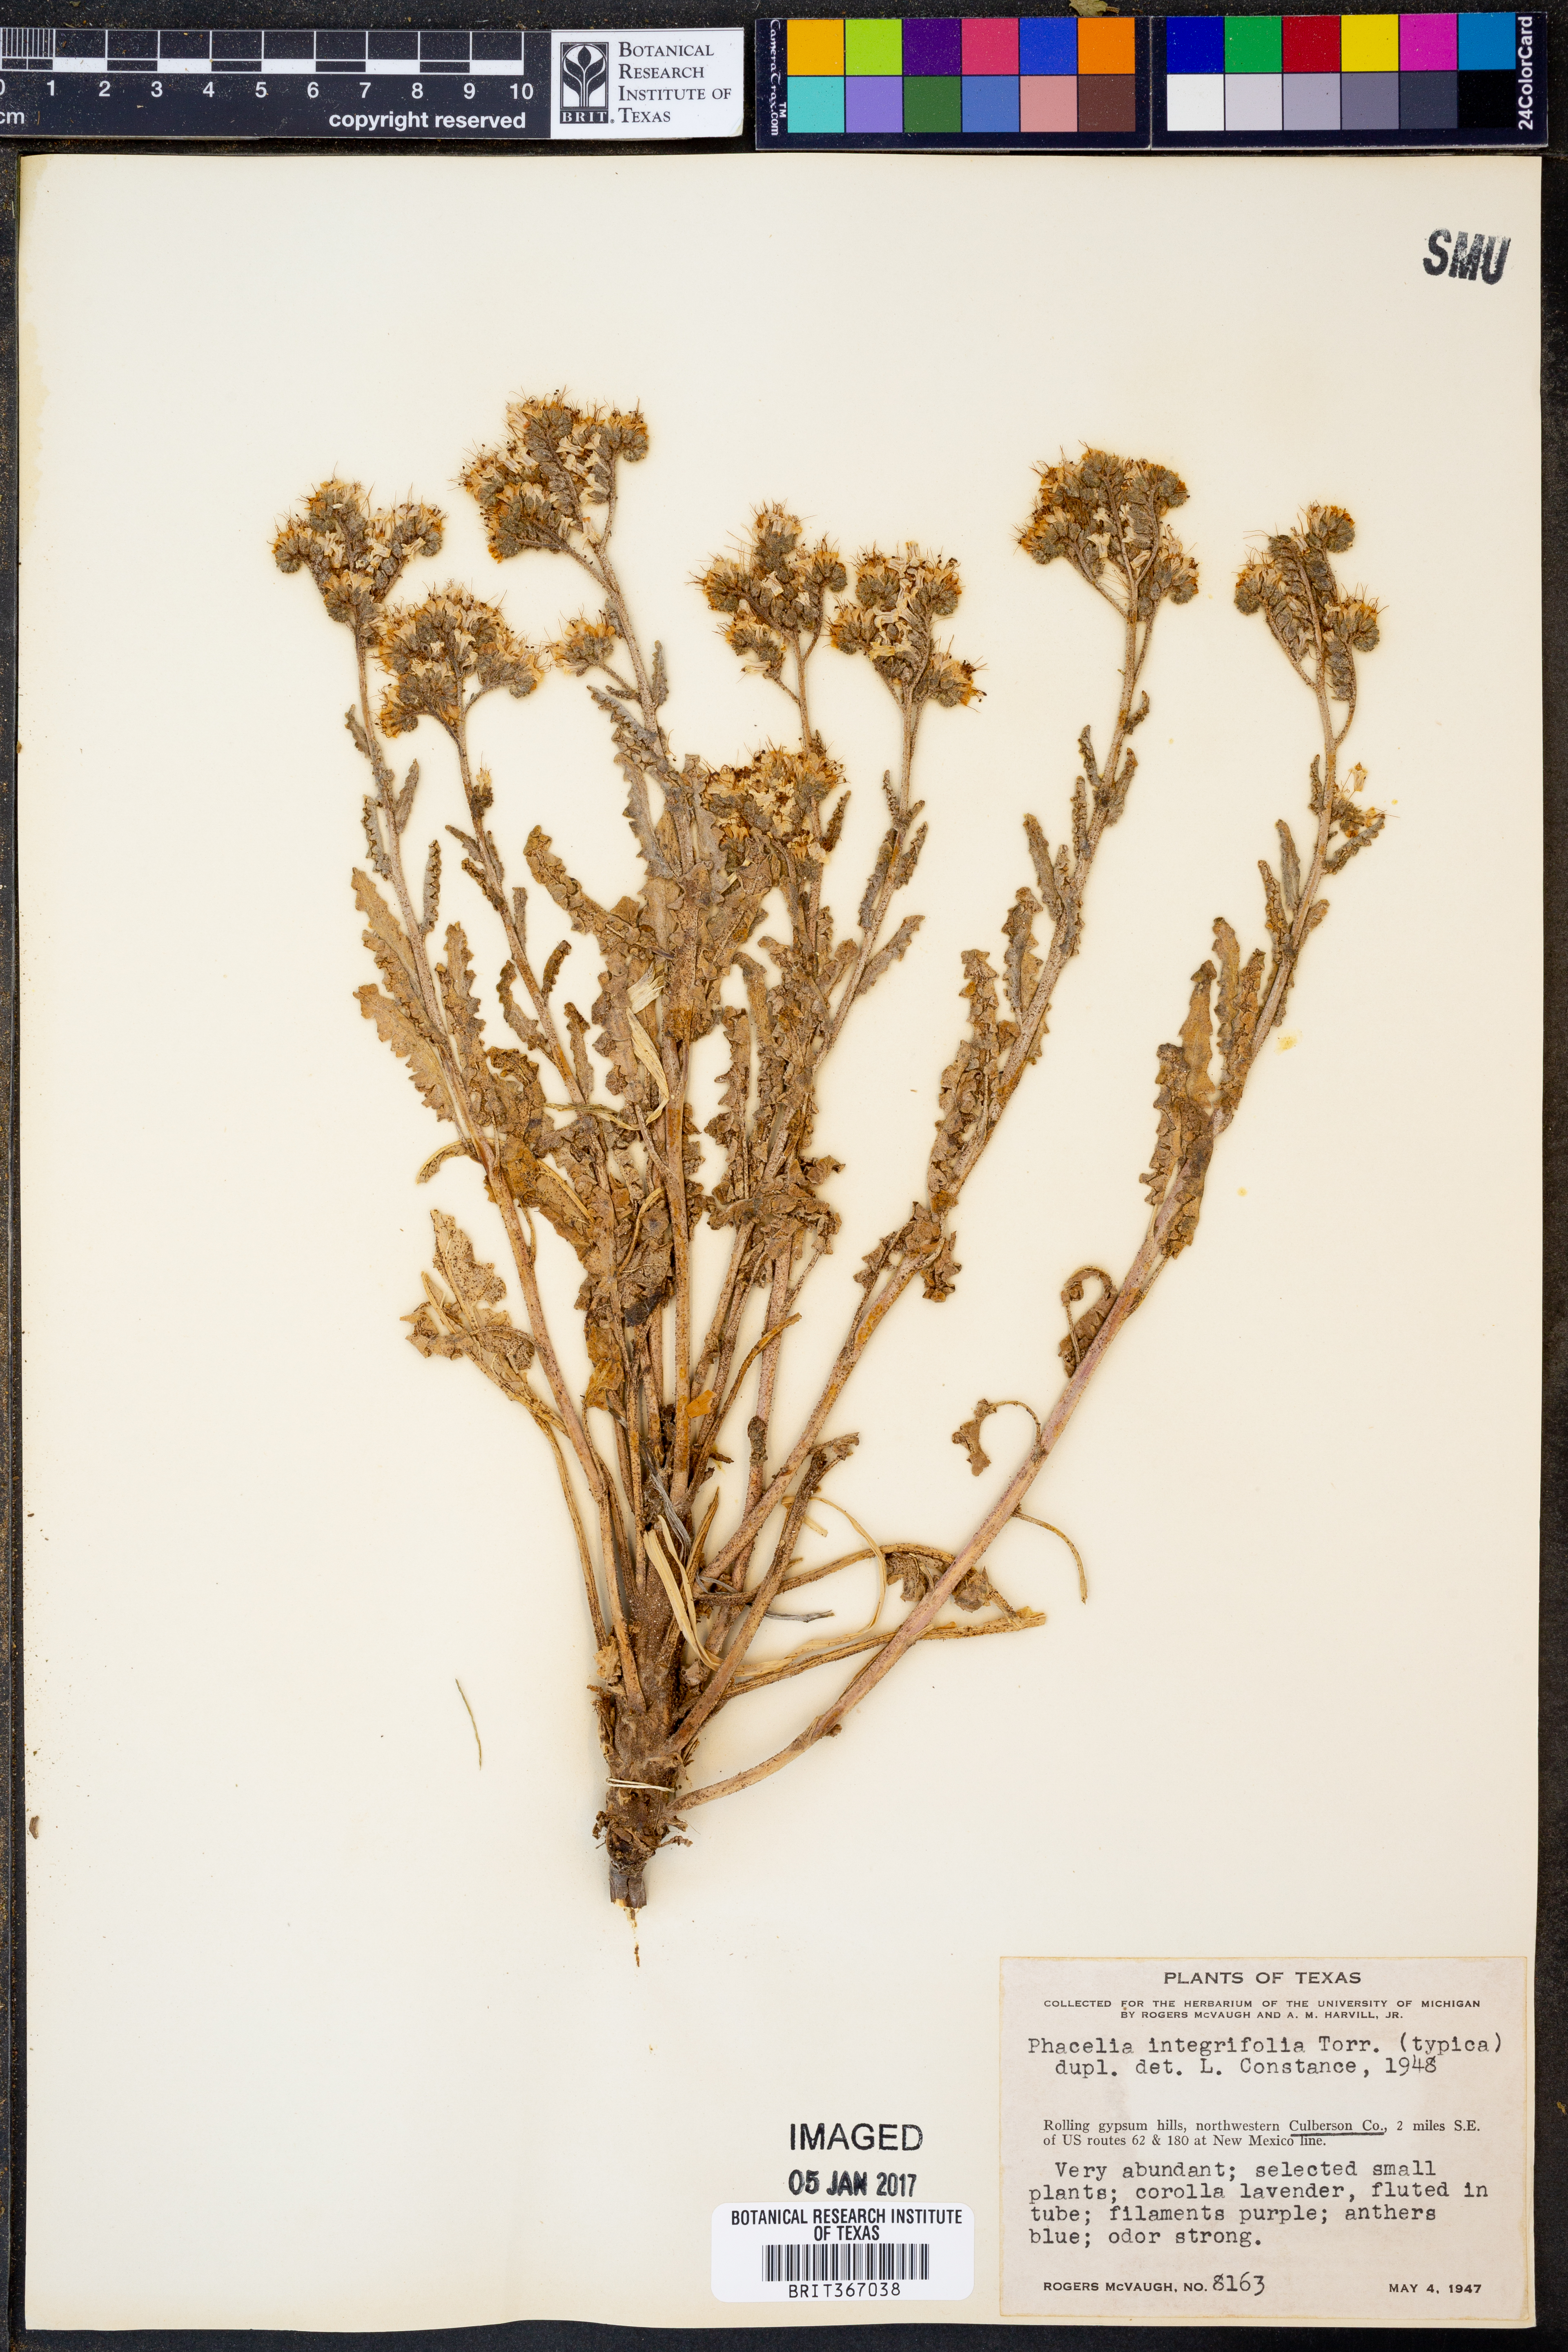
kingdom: Plantae
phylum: Tracheophyta
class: Magnoliopsida
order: Boraginales
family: Hydrophyllaceae
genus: Phacelia
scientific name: Phacelia integrifolia
